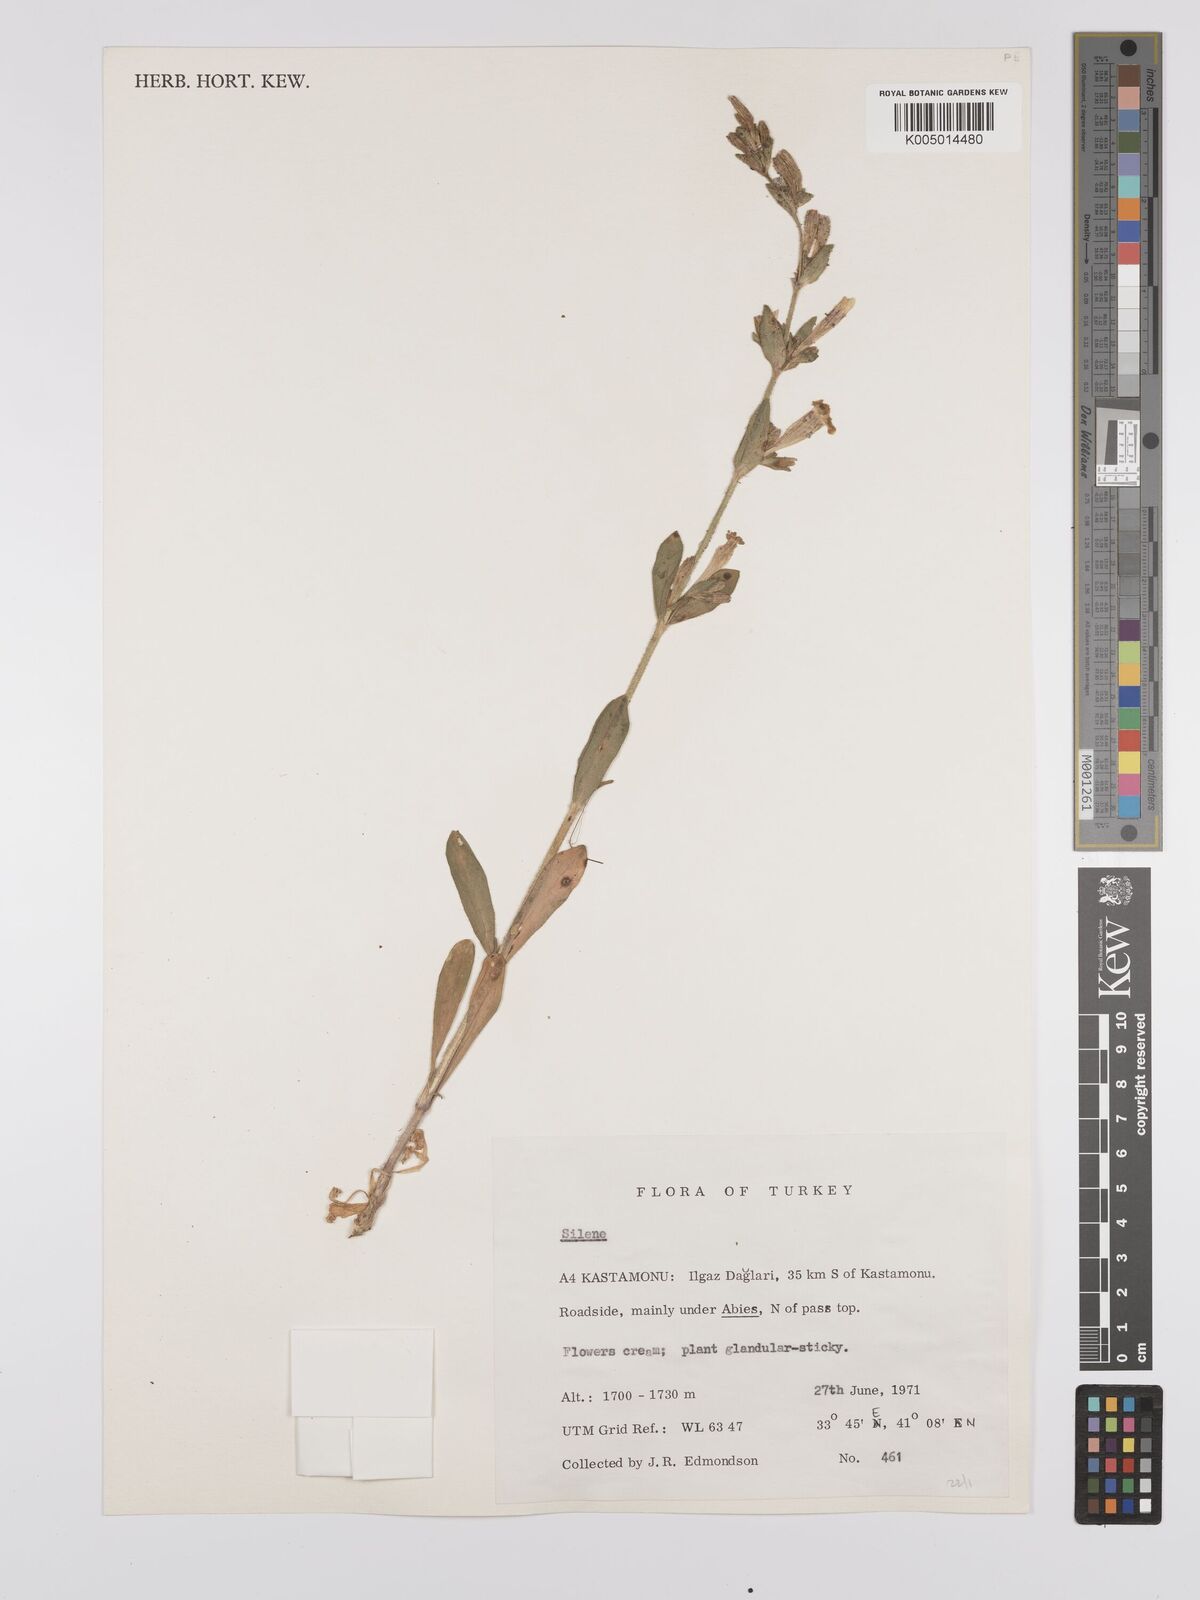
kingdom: Plantae
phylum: Tracheophyta
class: Magnoliopsida
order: Caryophyllales
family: Caryophyllaceae
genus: Silene
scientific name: Silene
